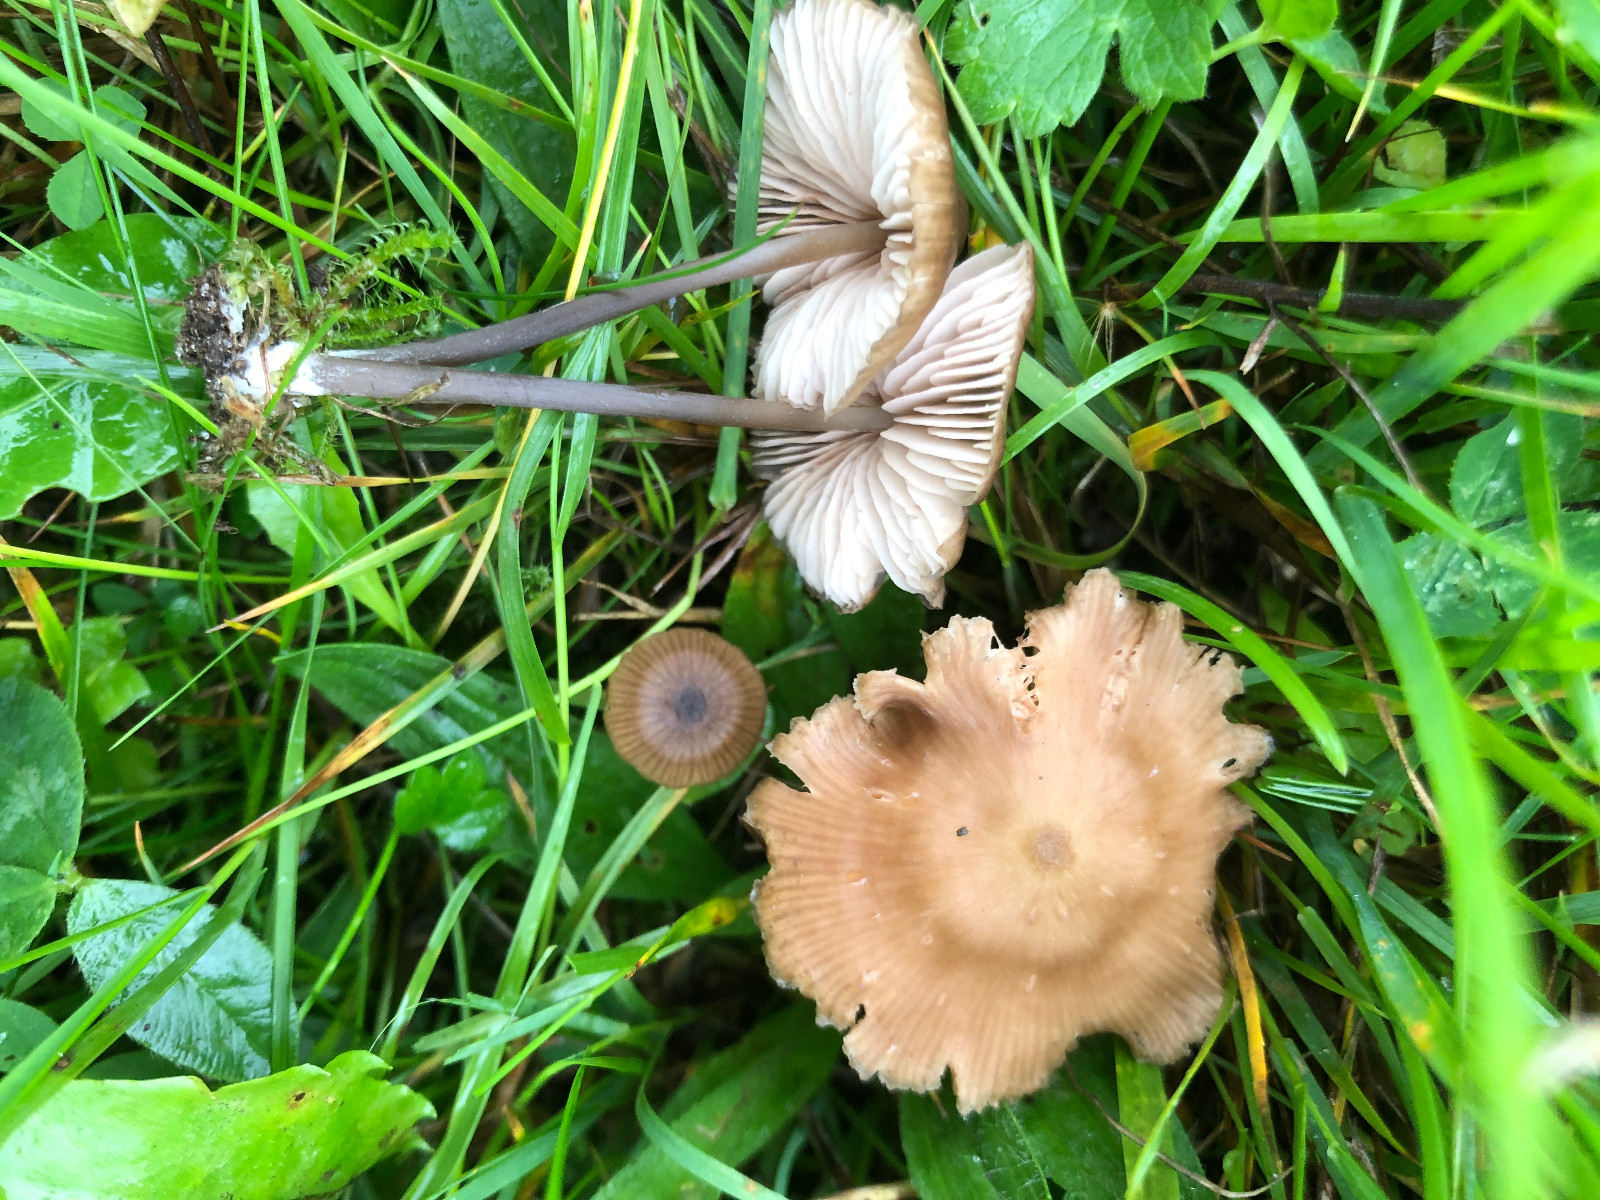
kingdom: Fungi
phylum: Basidiomycota
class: Agaricomycetes
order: Agaricales
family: Entolomataceae
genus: Entoloma
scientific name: Entoloma infula
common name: hvidbladet rødblad
